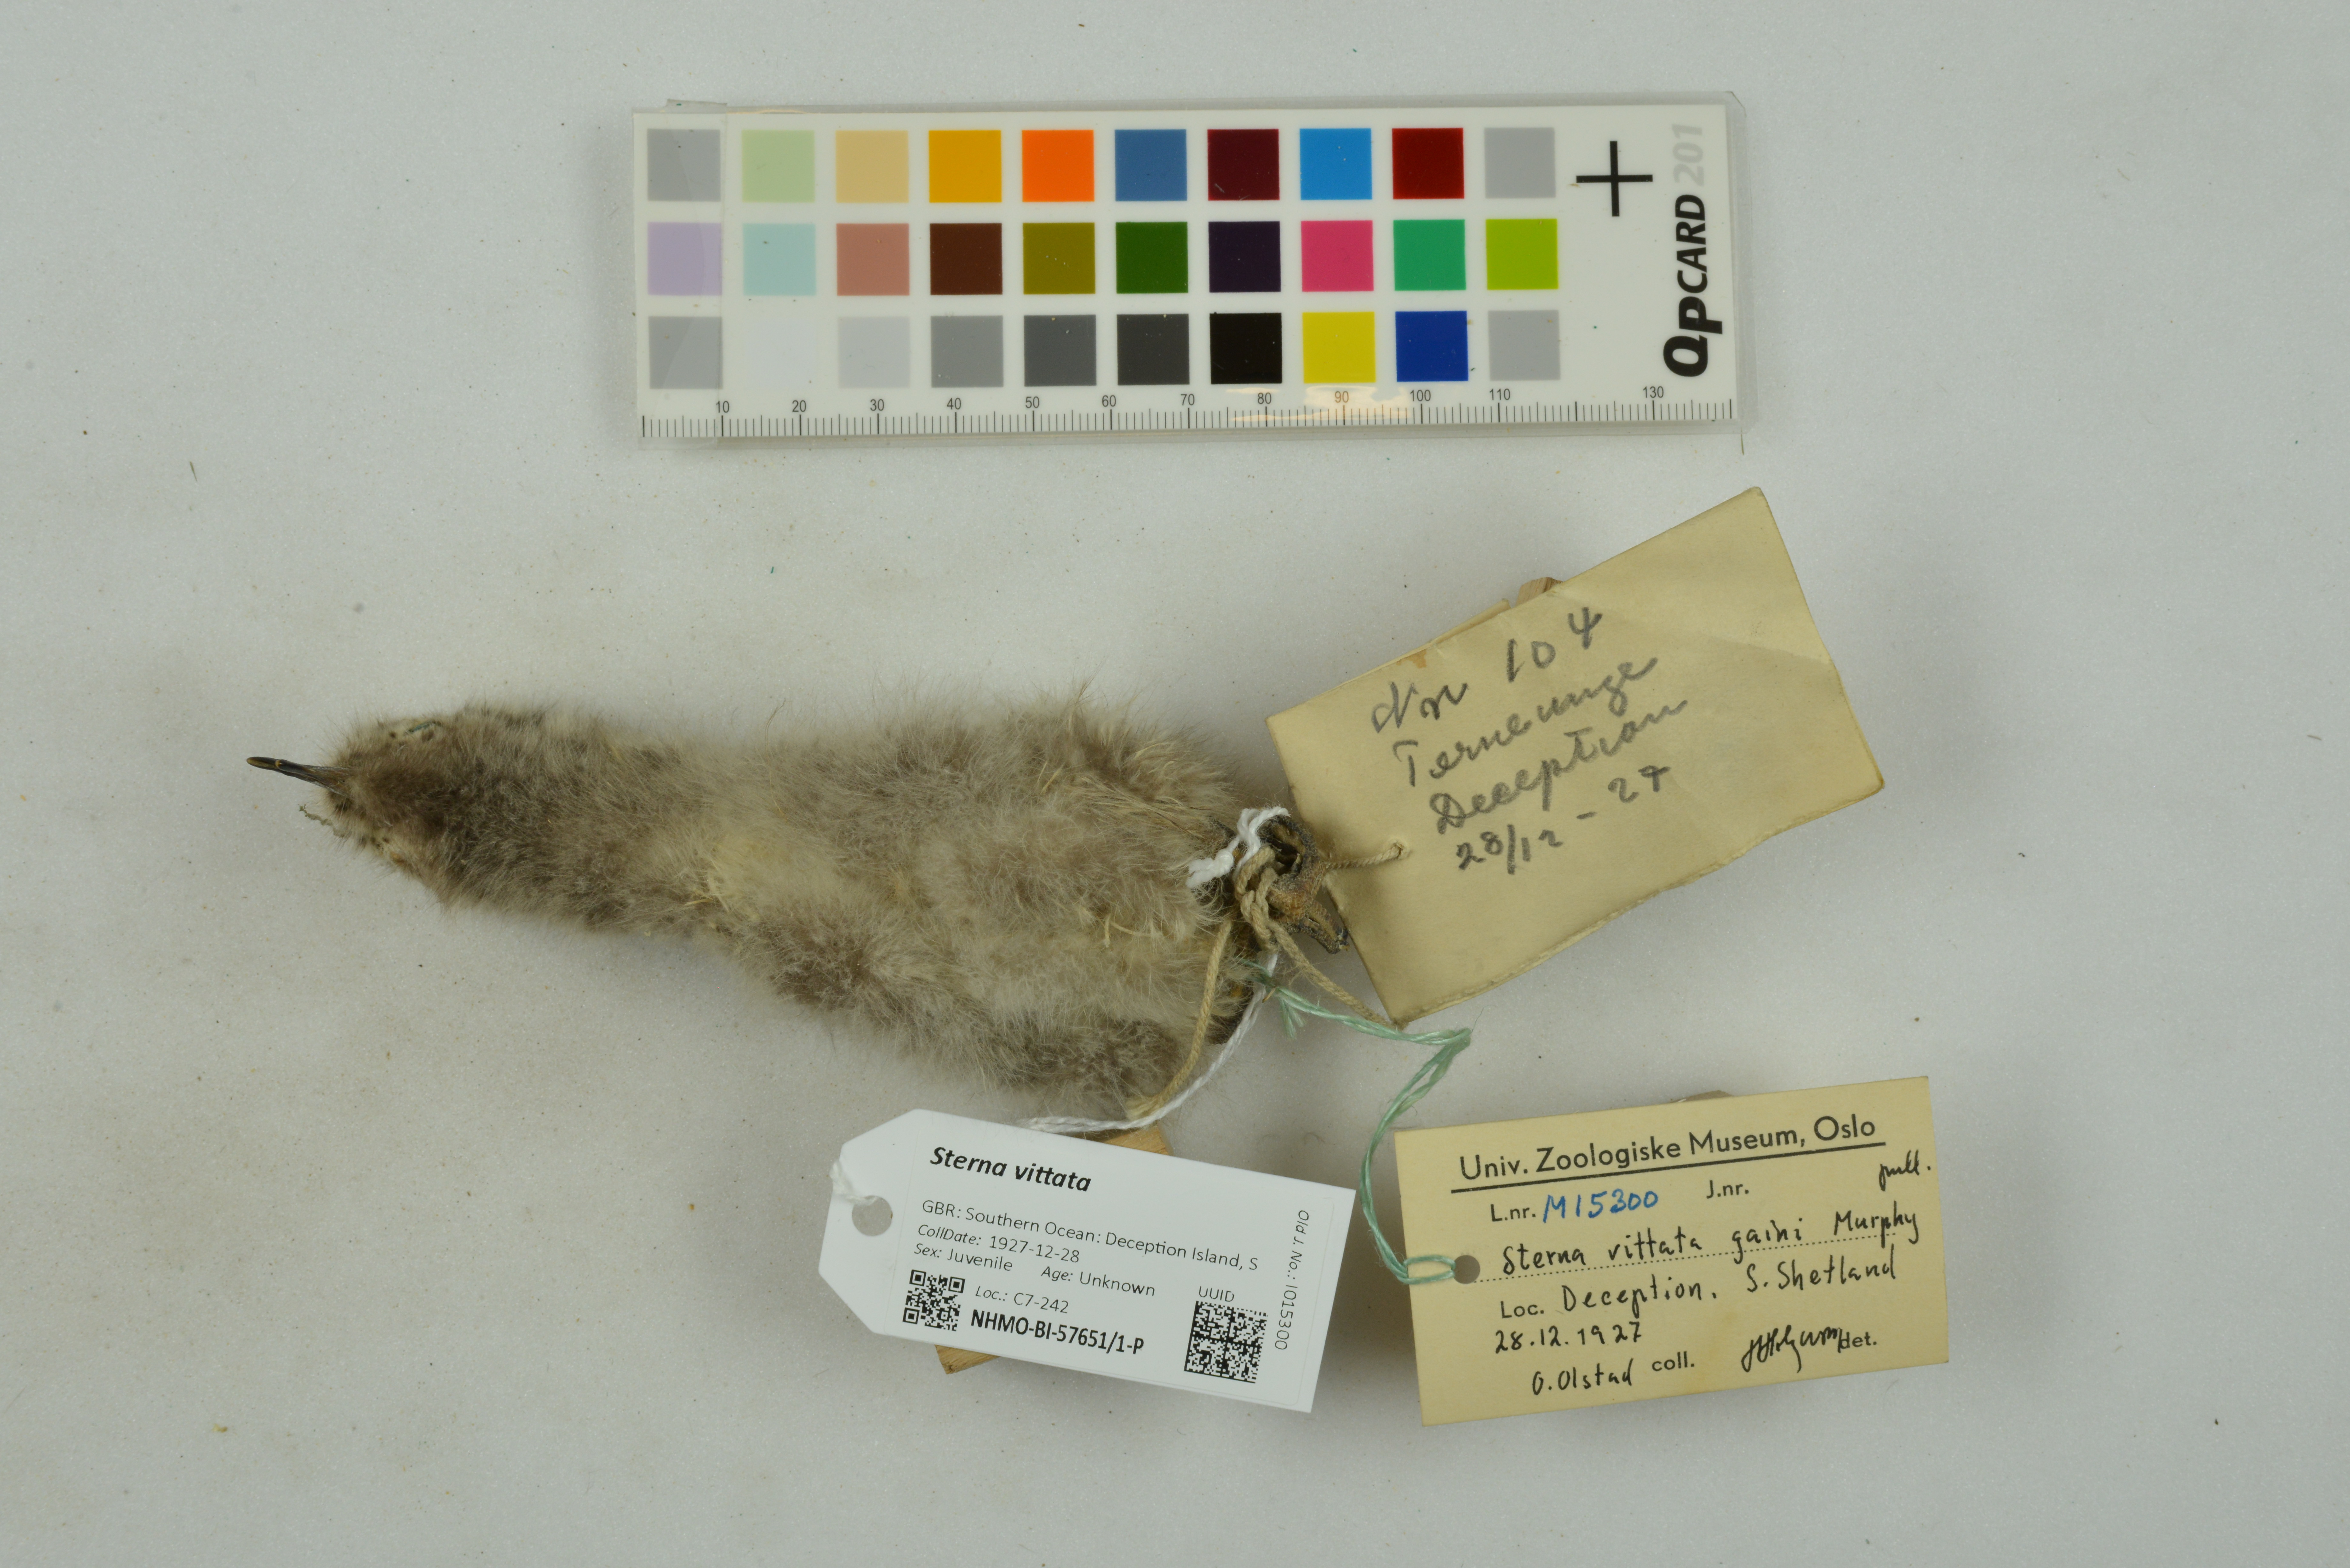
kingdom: Animalia
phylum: Chordata
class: Aves
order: Charadriiformes
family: Laridae
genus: Sterna
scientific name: Sterna vittata
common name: Antarctic tern
